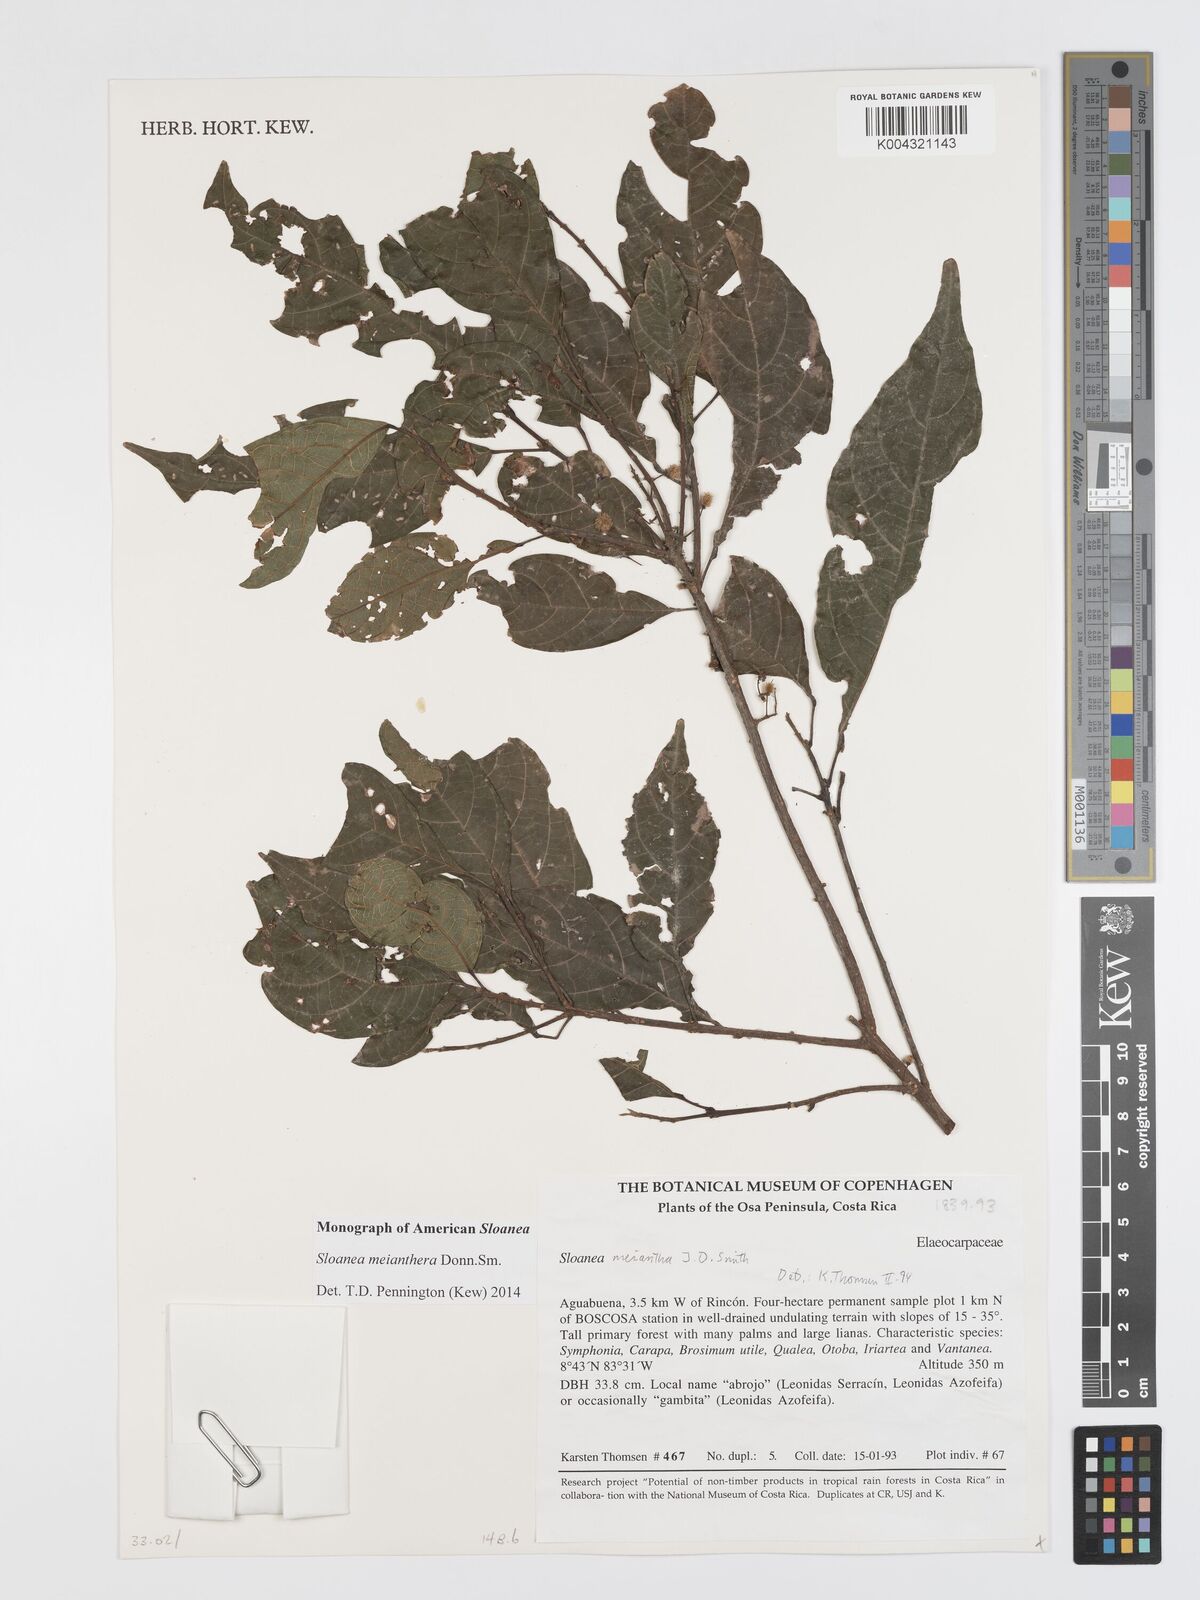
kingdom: Plantae
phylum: Tracheophyta
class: Magnoliopsida
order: Oxalidales
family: Elaeocarpaceae
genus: Sloanea
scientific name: Sloanea meianthera
